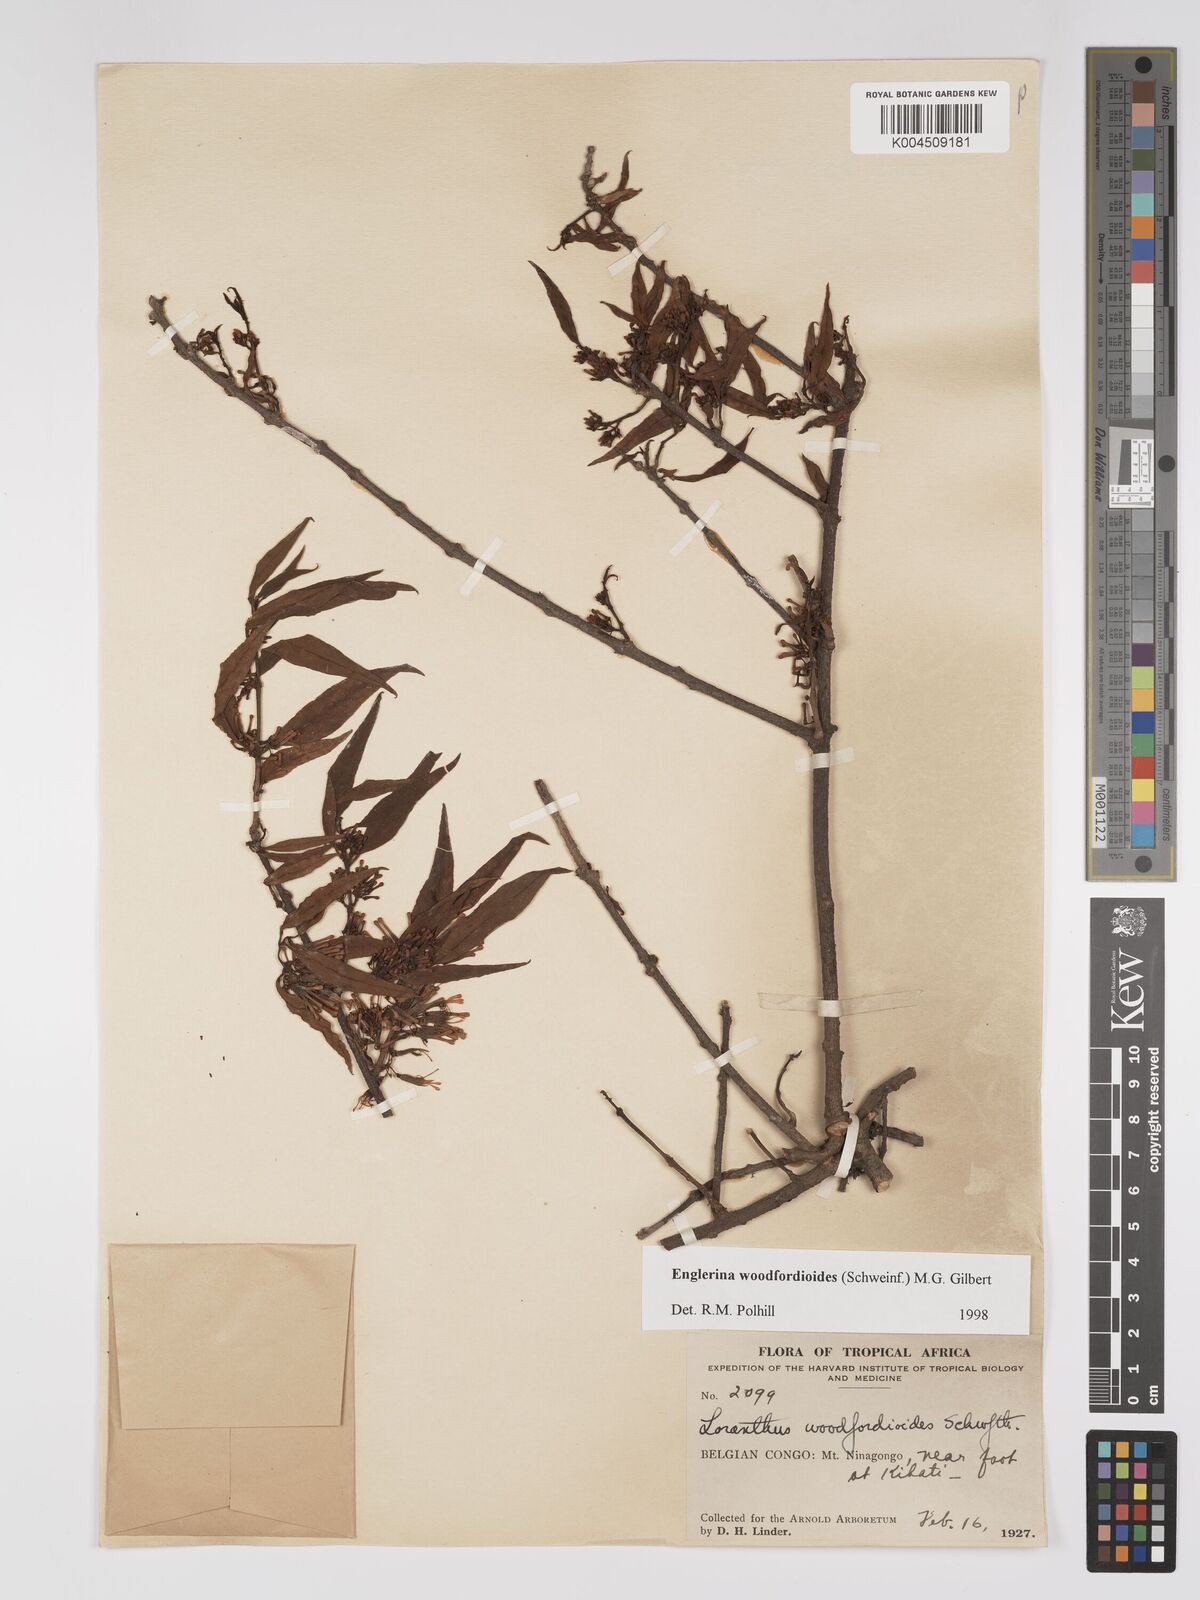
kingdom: Plantae
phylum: Tracheophyta
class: Magnoliopsida
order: Santalales
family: Loranthaceae
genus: Englerina
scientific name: Englerina woodfordioides
